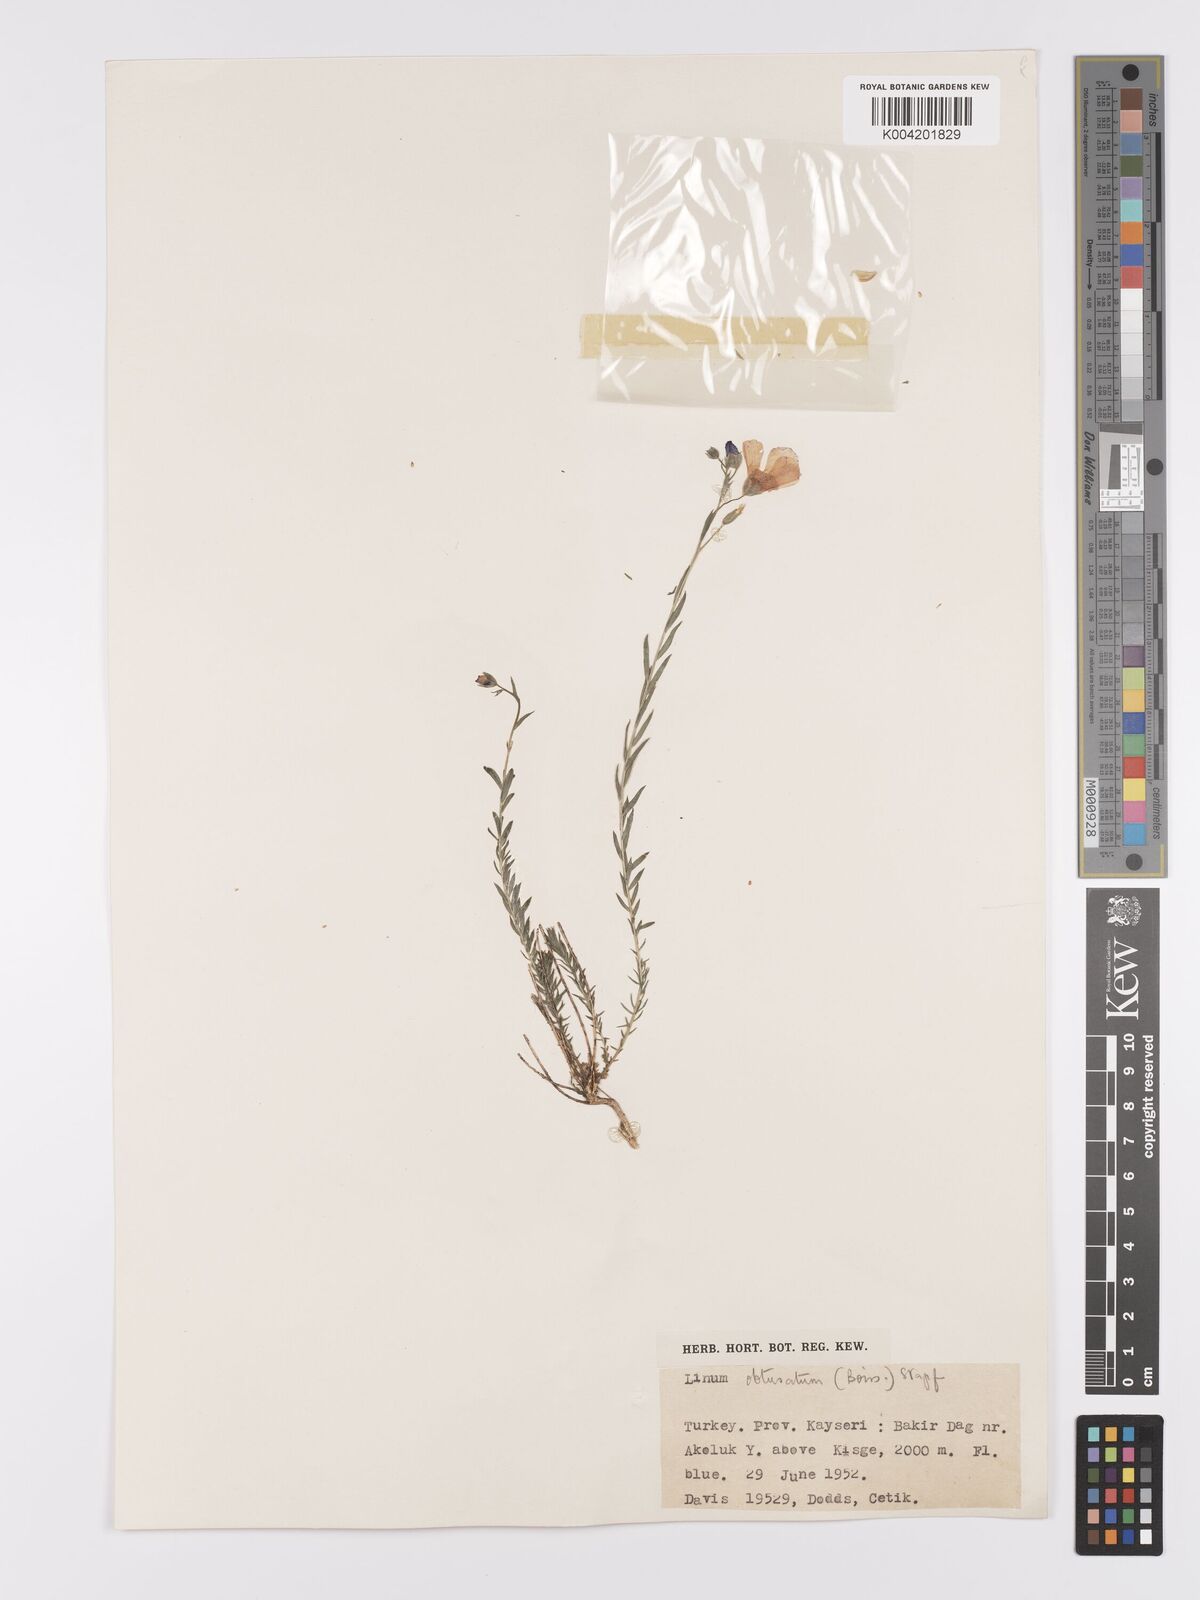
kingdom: Plantae
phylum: Tracheophyta
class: Magnoliopsida
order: Malpighiales
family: Linaceae
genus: Linum
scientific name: Linum obtusatum
